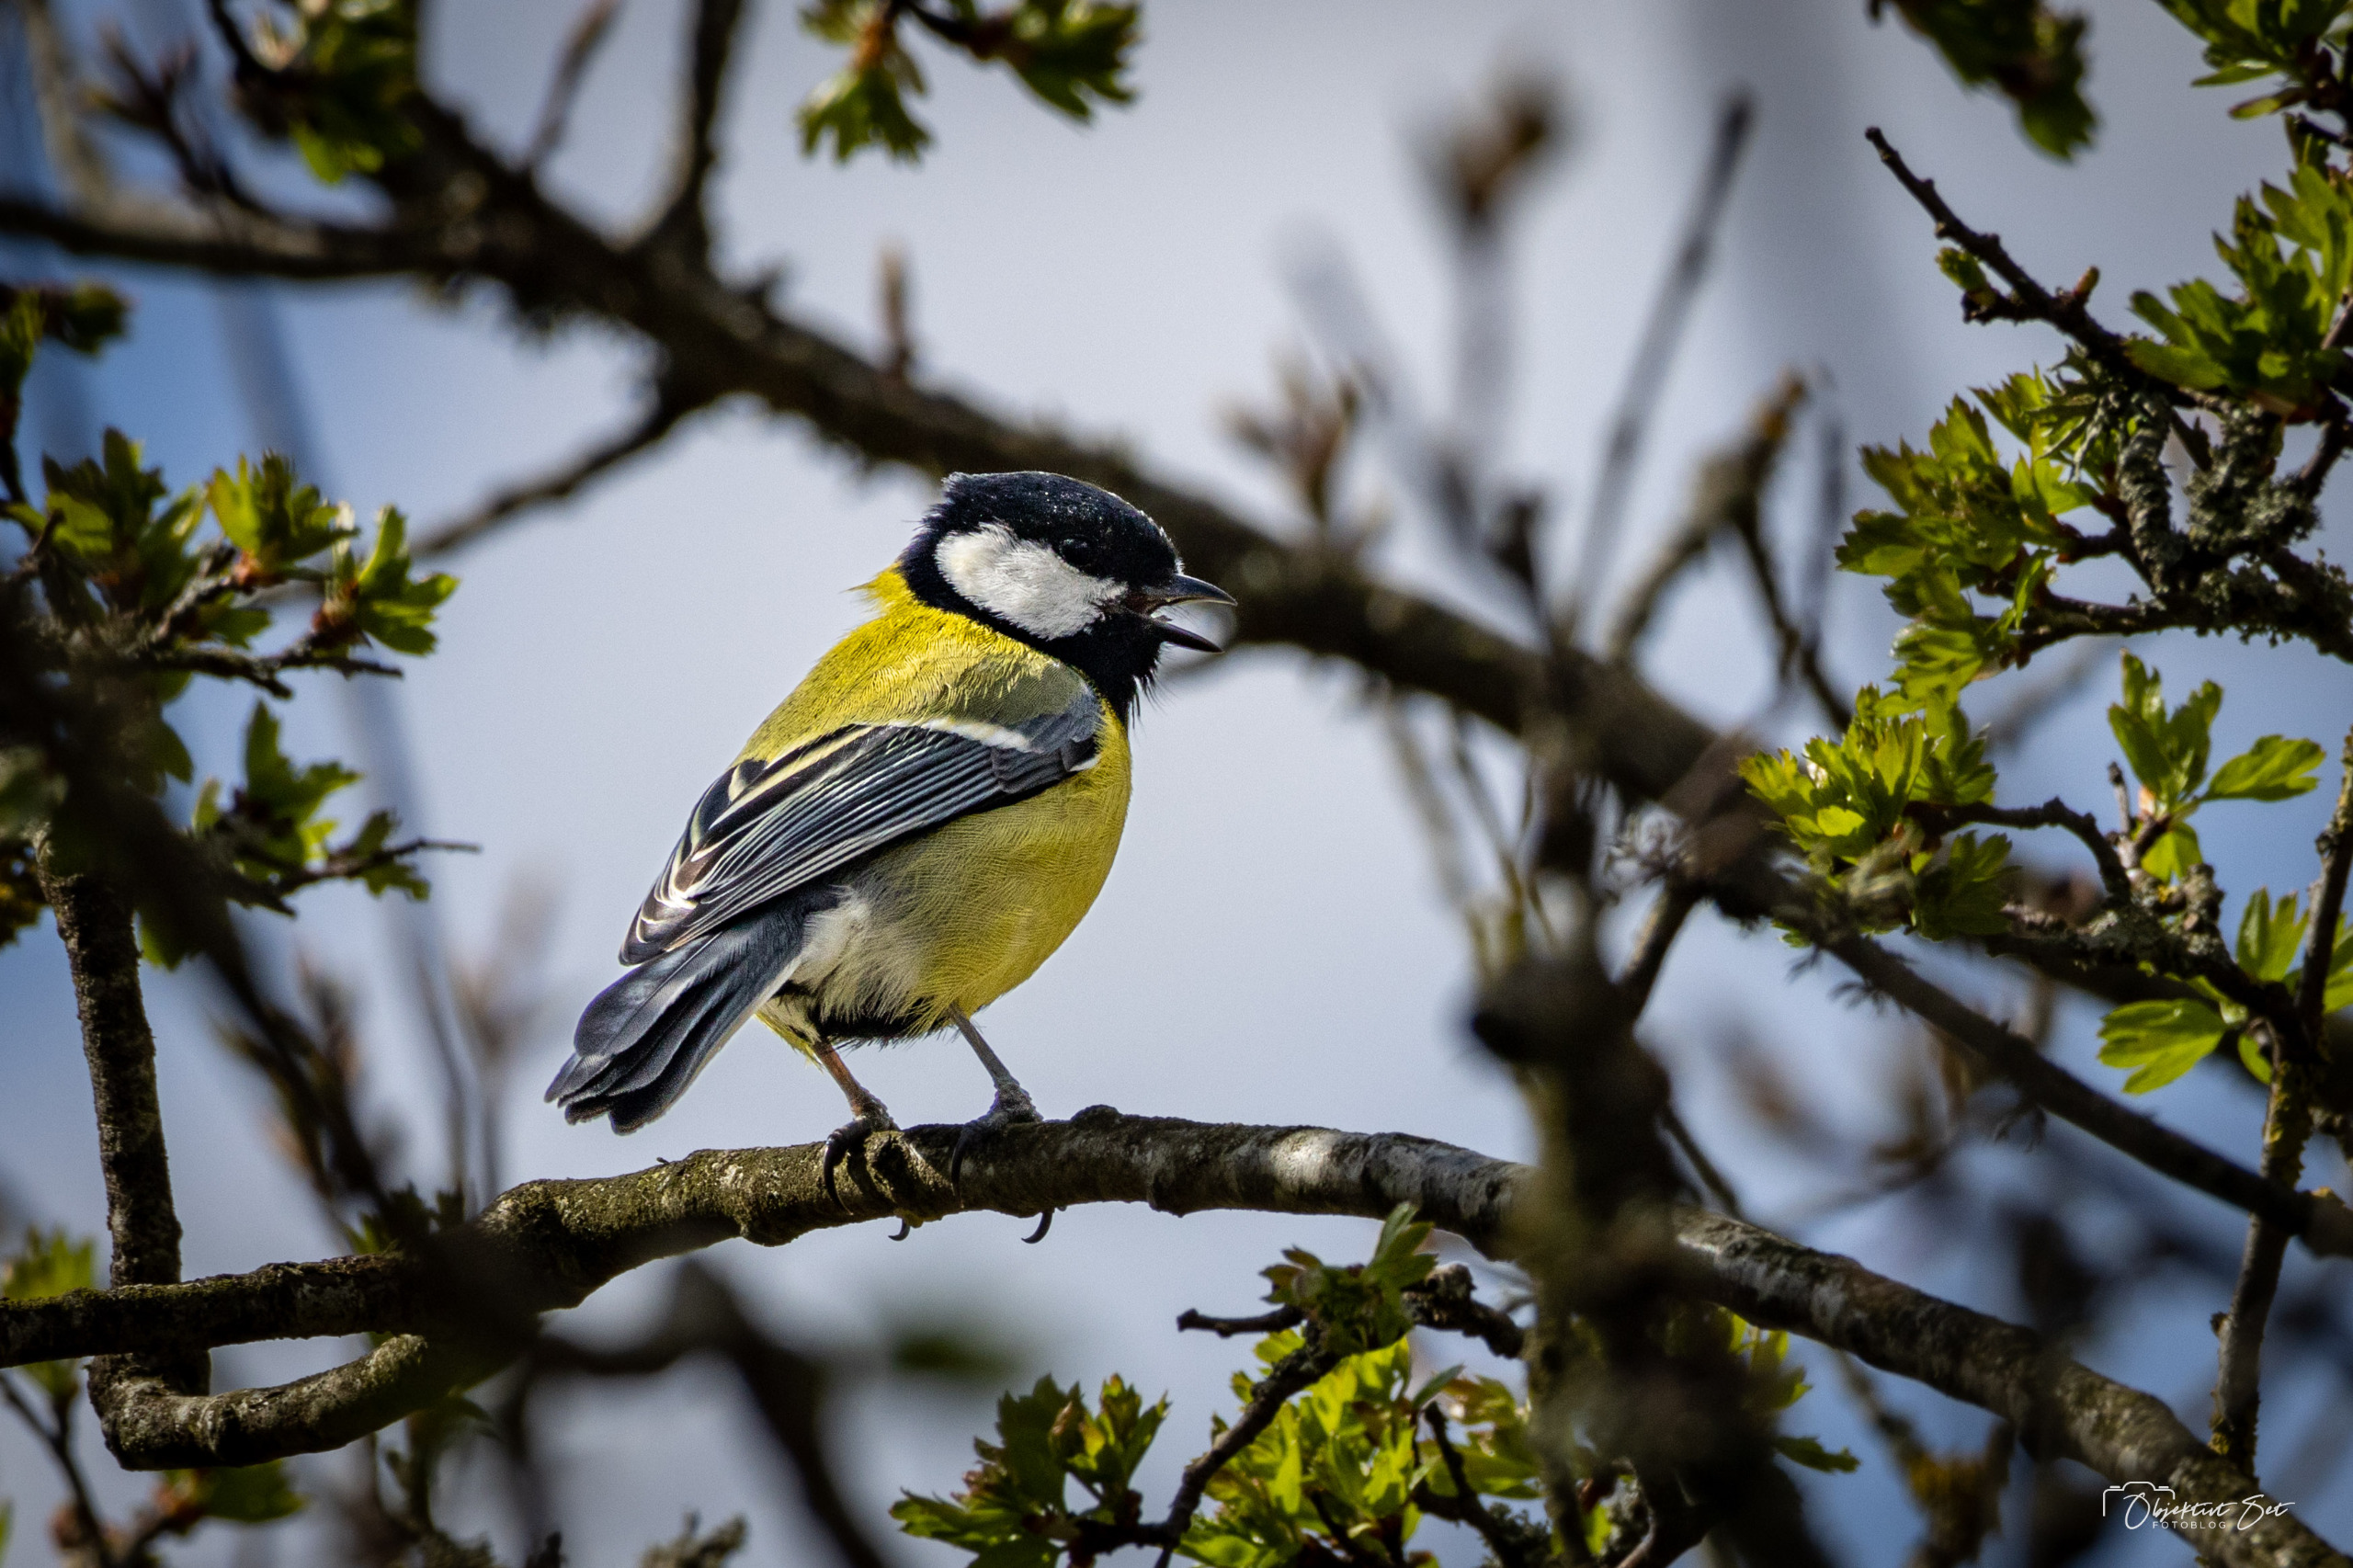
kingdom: Animalia
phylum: Chordata
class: Aves
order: Passeriformes
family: Paridae
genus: Parus
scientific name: Parus major
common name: Musvit
